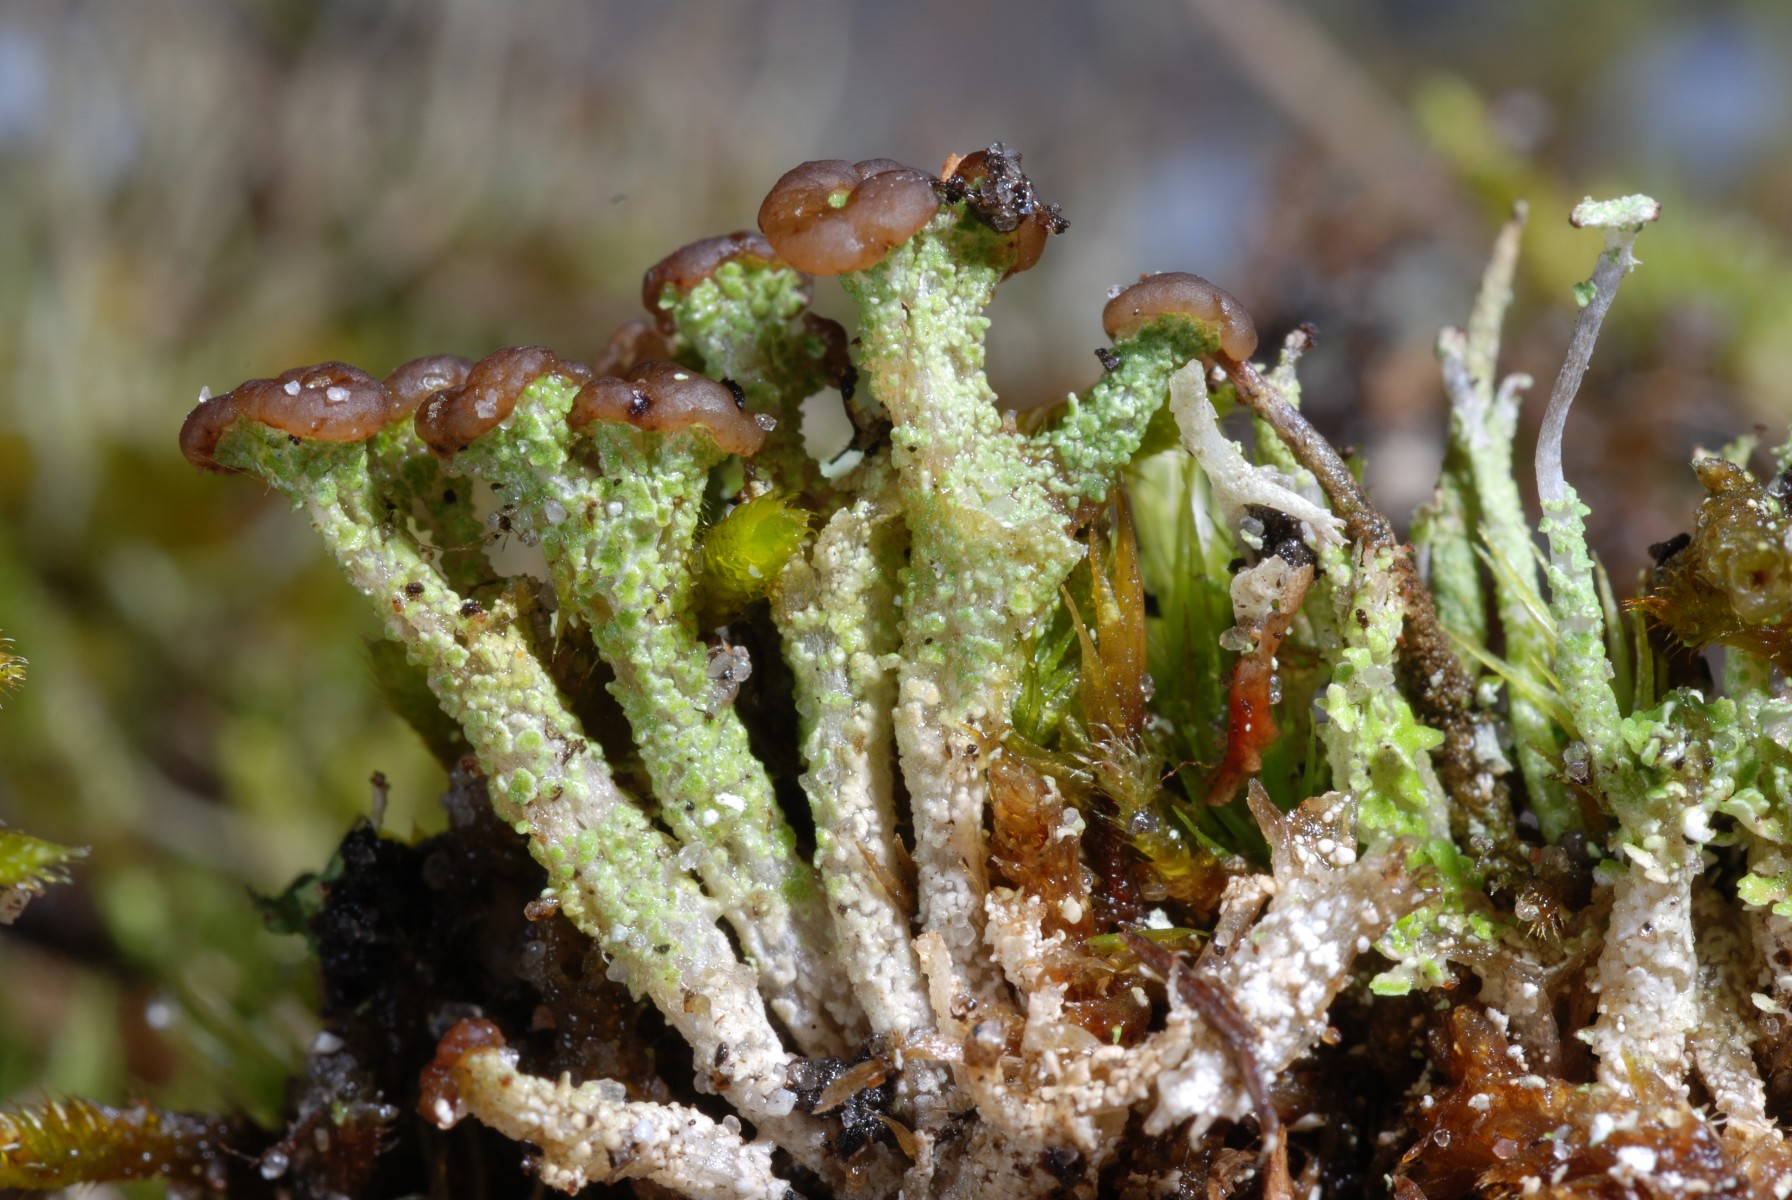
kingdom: Fungi
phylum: Ascomycota
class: Lecanoromycetes
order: Lecanorales
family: Cladoniaceae
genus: Cladonia
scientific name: Cladonia ramulosa
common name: kliddet bægerlav
